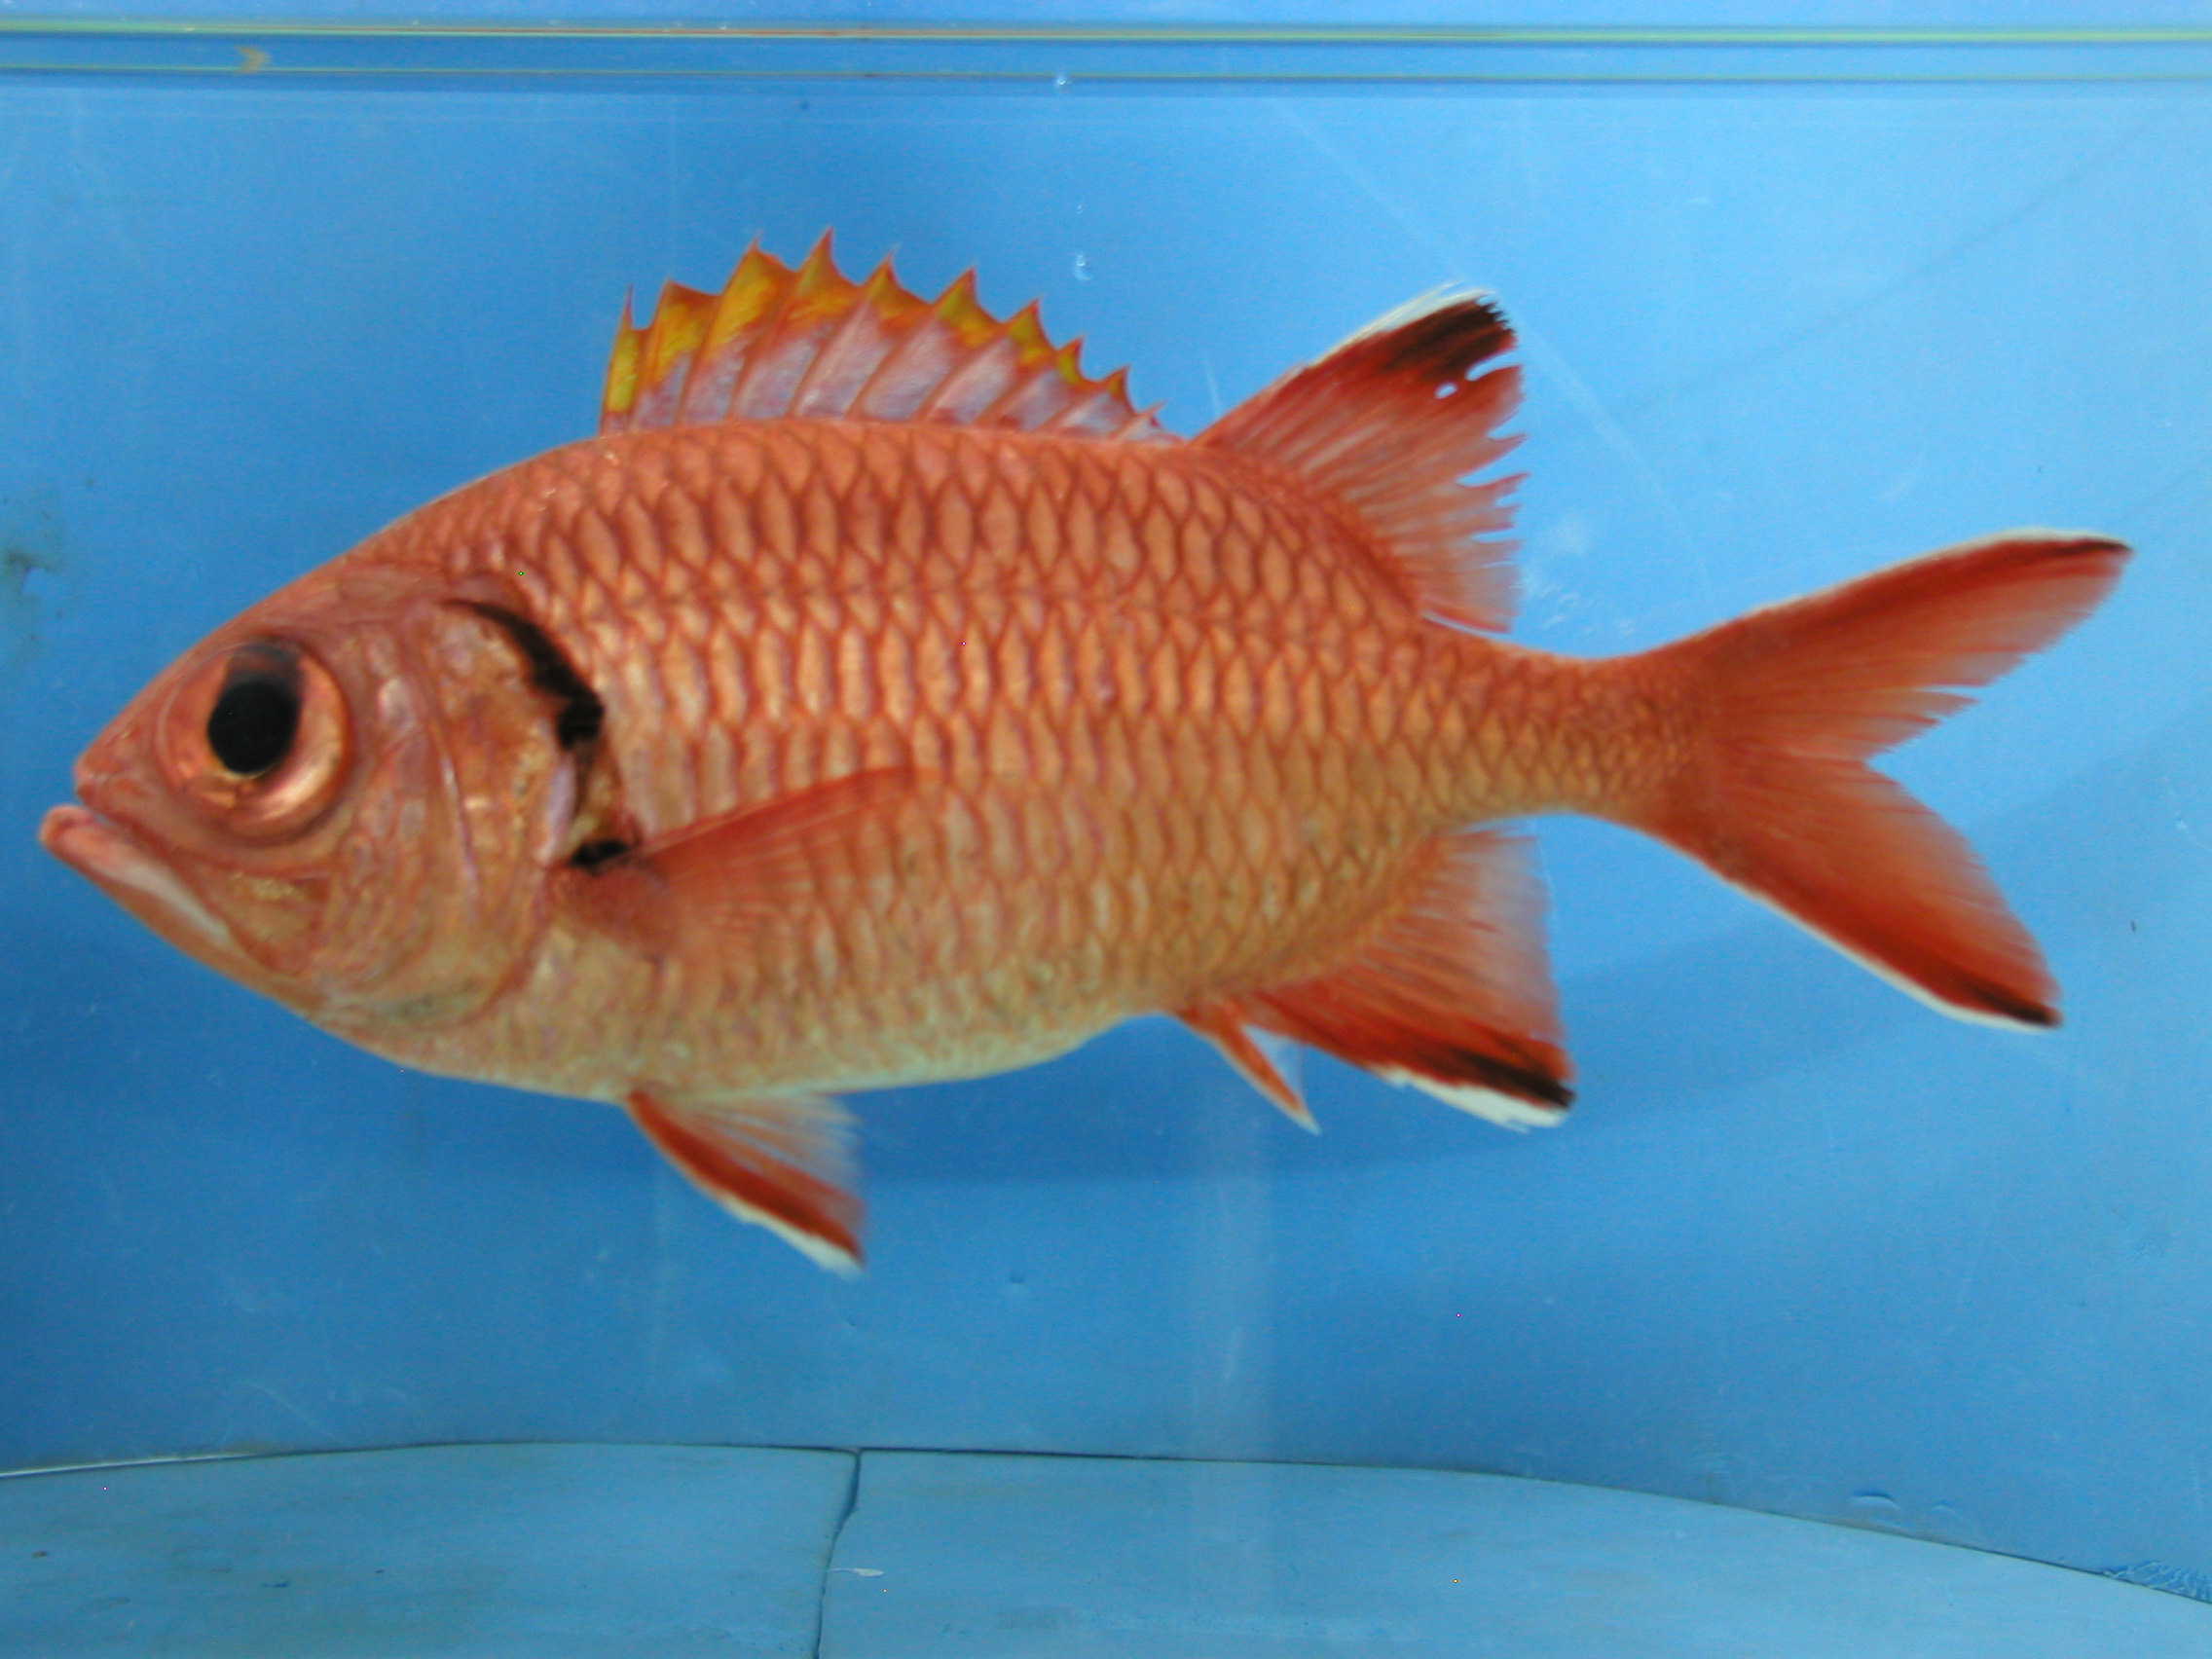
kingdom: Animalia
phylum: Chordata
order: Beryciformes
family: Holocentridae
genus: Myripristis
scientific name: Myripristis murdjan
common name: Big-eye soldierfish
